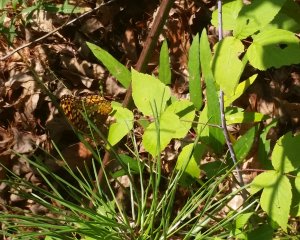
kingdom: Animalia
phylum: Arthropoda
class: Insecta
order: Lepidoptera
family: Nymphalidae
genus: Speyeria
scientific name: Speyeria cybele
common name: Great Spangled Fritillary
